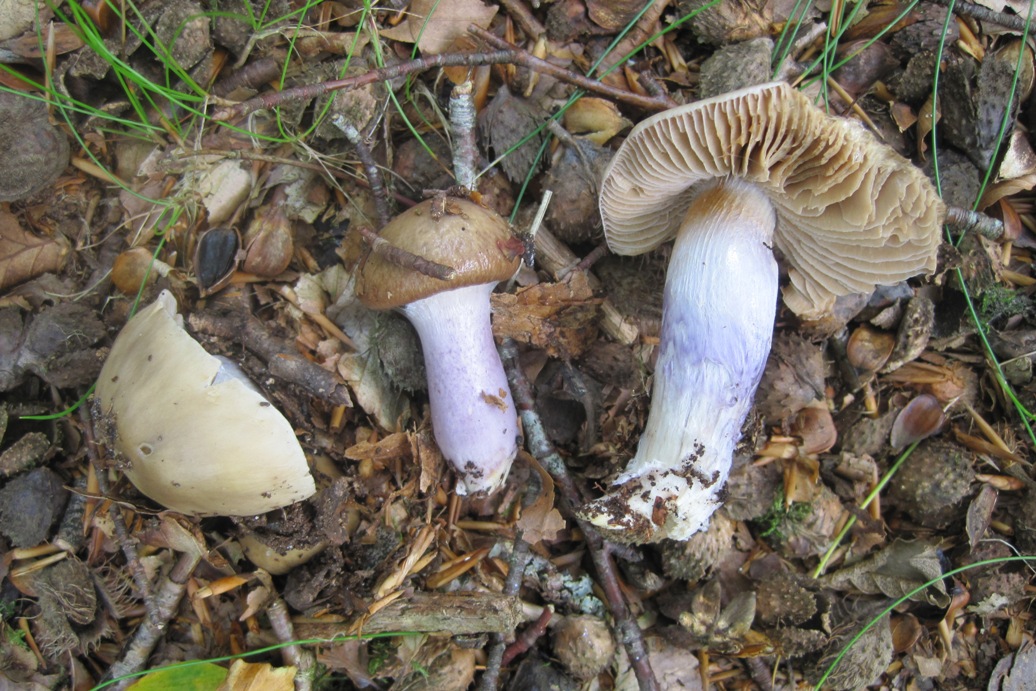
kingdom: Fungi
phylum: Basidiomycota
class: Agaricomycetes
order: Agaricales
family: Cortinariaceae
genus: Cortinarius
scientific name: Cortinarius elatior
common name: høj slørhat
